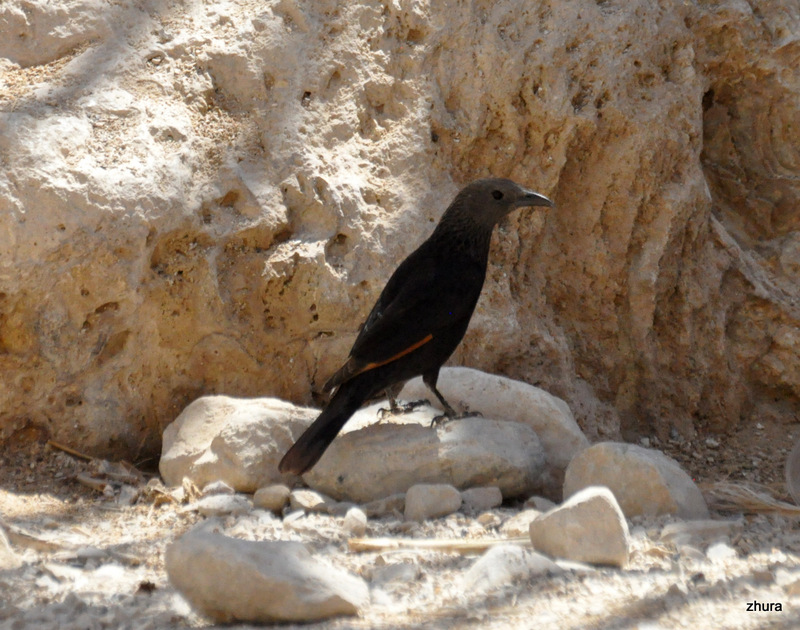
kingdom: Animalia
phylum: Chordata
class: Aves
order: Passeriformes
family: Sturnidae
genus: Onychognathus
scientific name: Onychognathus tristramii
